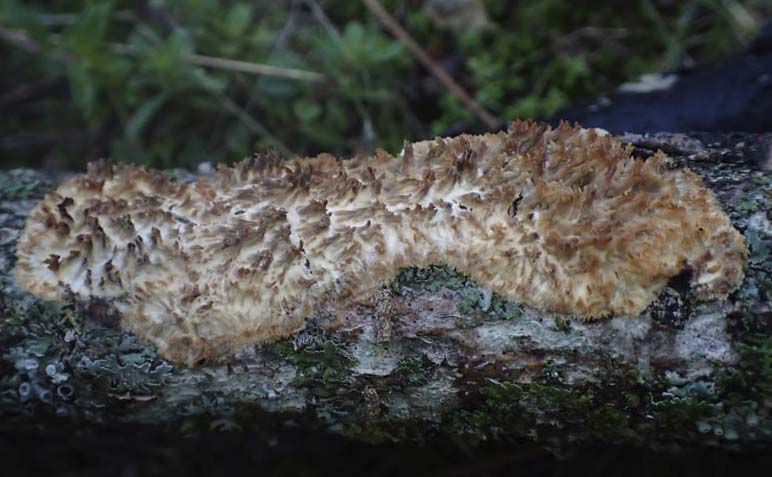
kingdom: Fungi
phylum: Basidiomycota
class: Agaricomycetes
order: Agaricales
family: Radulomycetaceae
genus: Radulomyces
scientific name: Radulomyces molaris
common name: tandet naftalinskind
